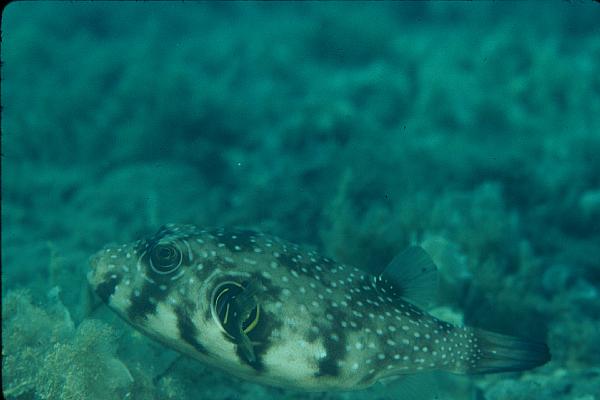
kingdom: Animalia
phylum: Chordata
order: Tetraodontiformes
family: Tetraodontidae
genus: Arothron
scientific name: Arothron hispidus
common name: Stripebelly puffer
